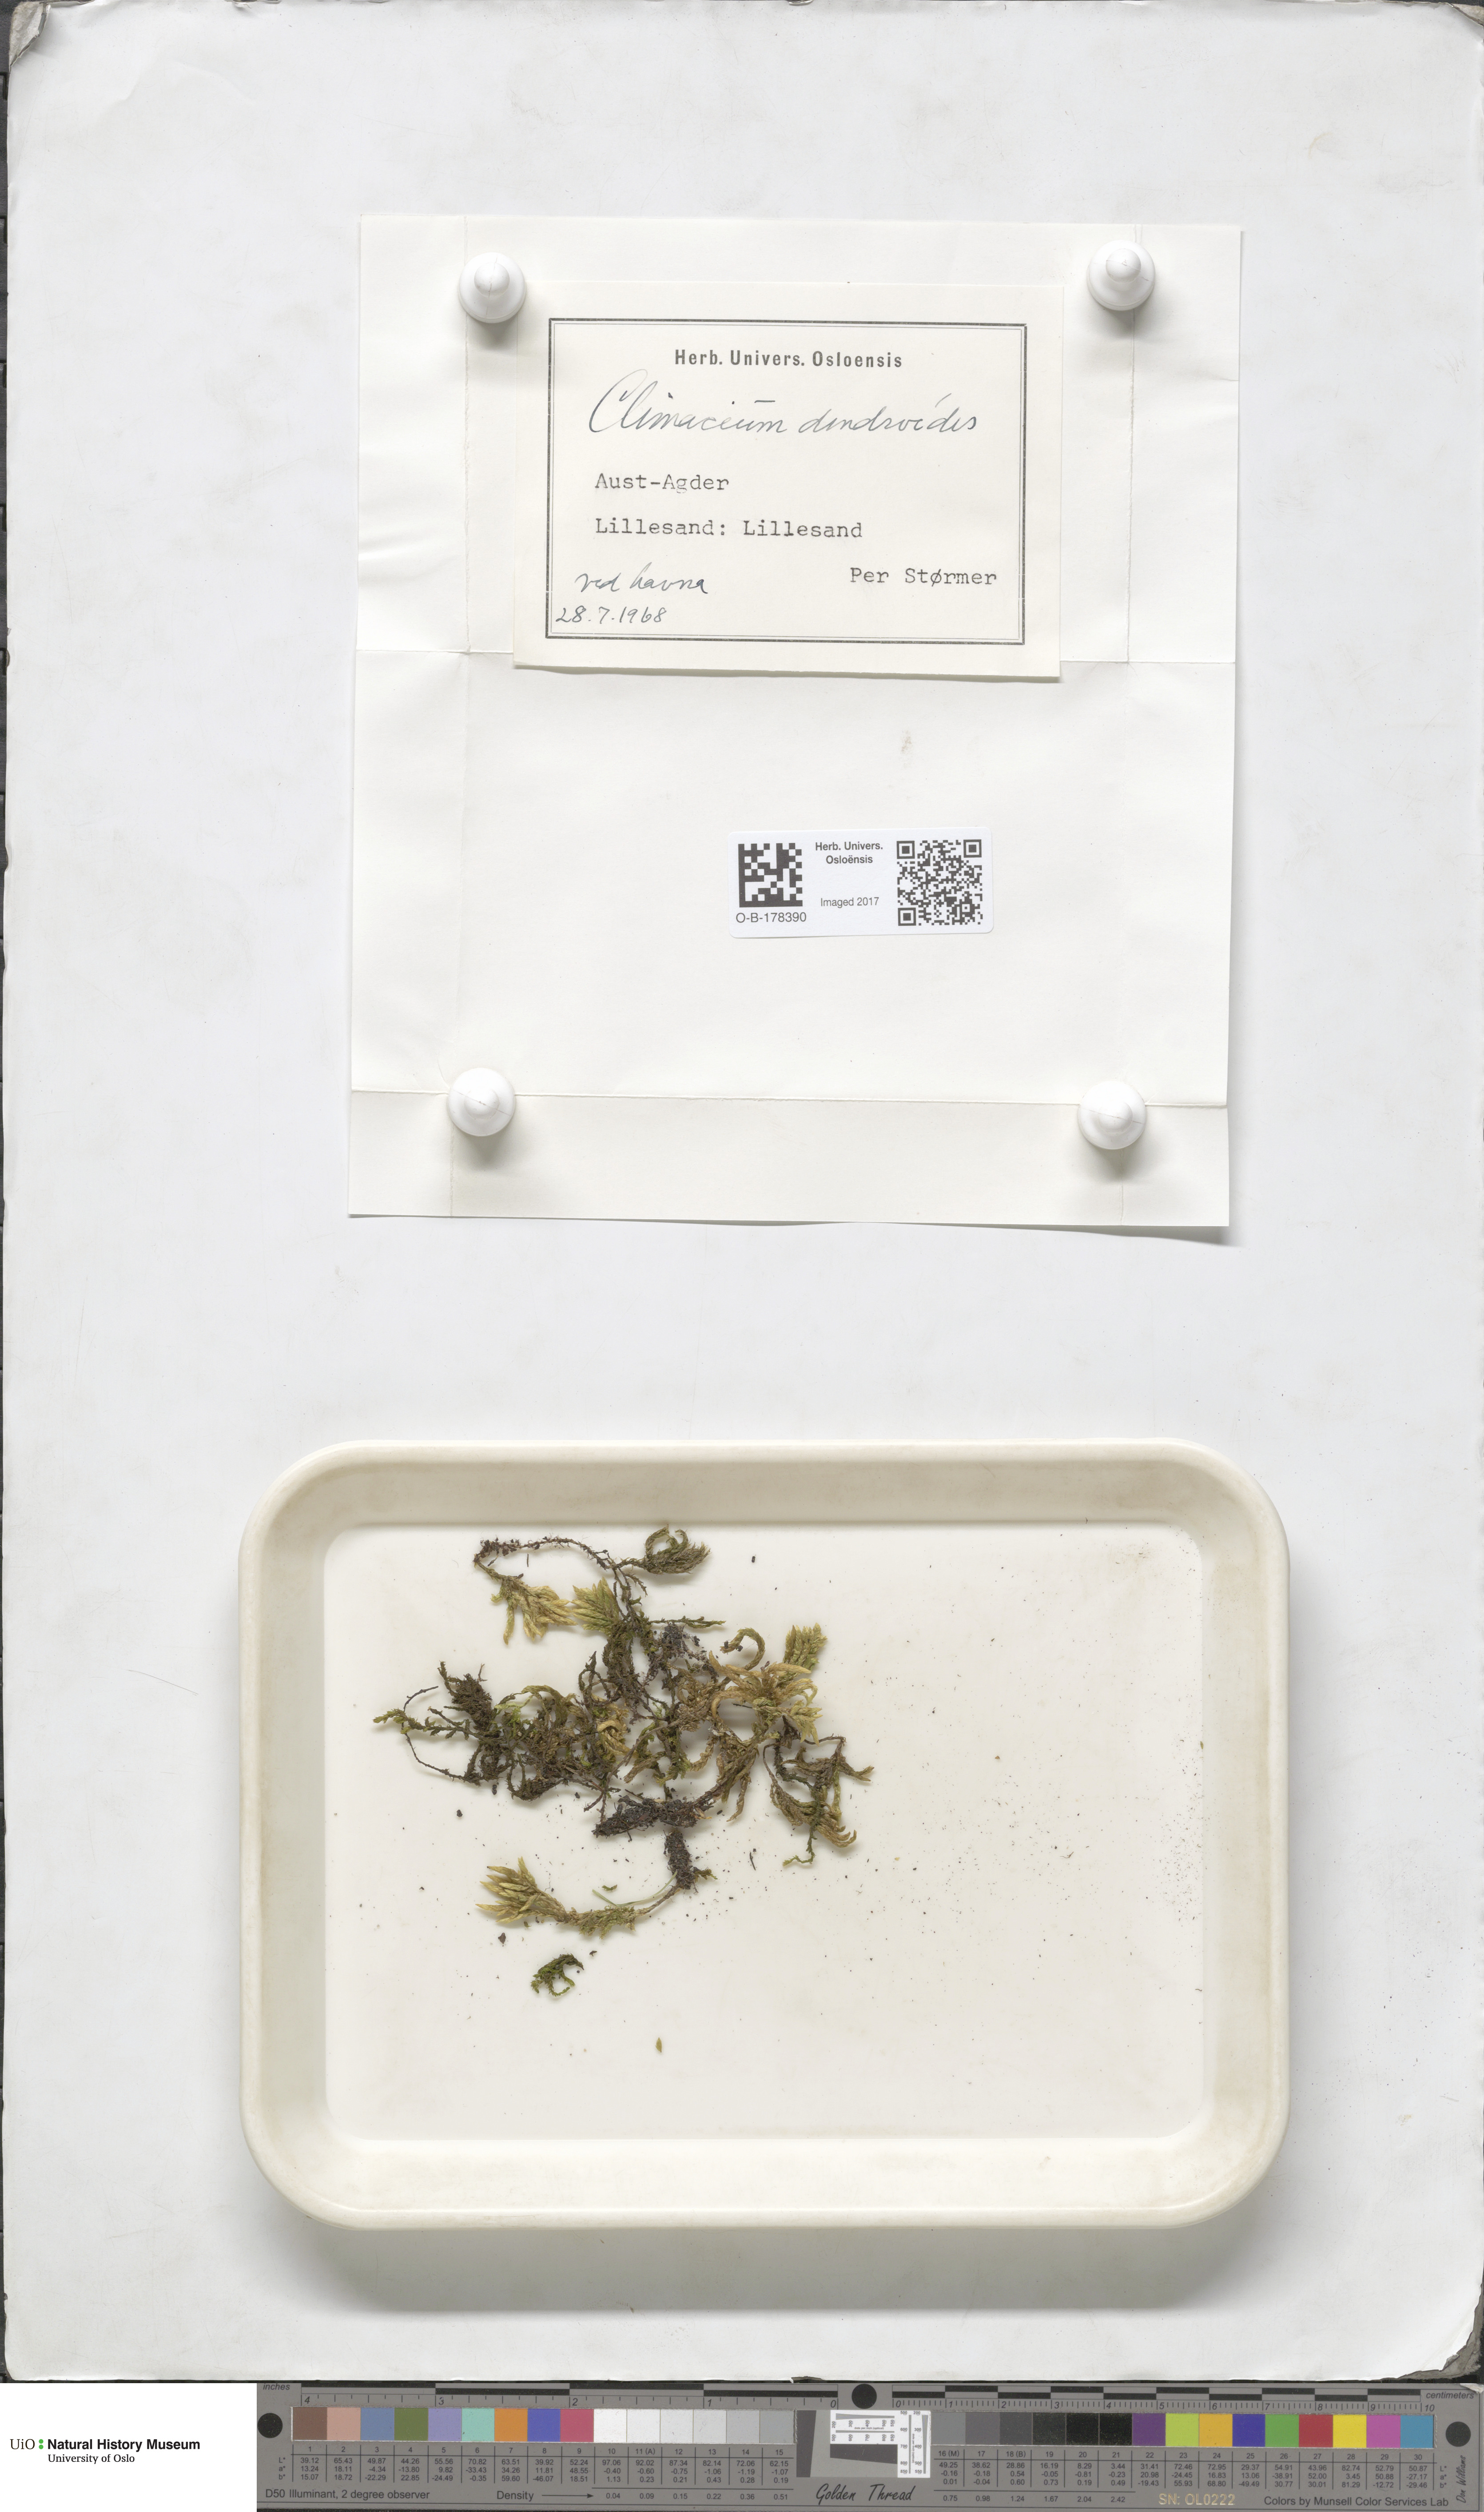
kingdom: Plantae
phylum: Bryophyta
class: Bryopsida
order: Hypnales
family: Climaciaceae
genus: Climacium
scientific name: Climacium dendroides
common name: Northern tree moss
